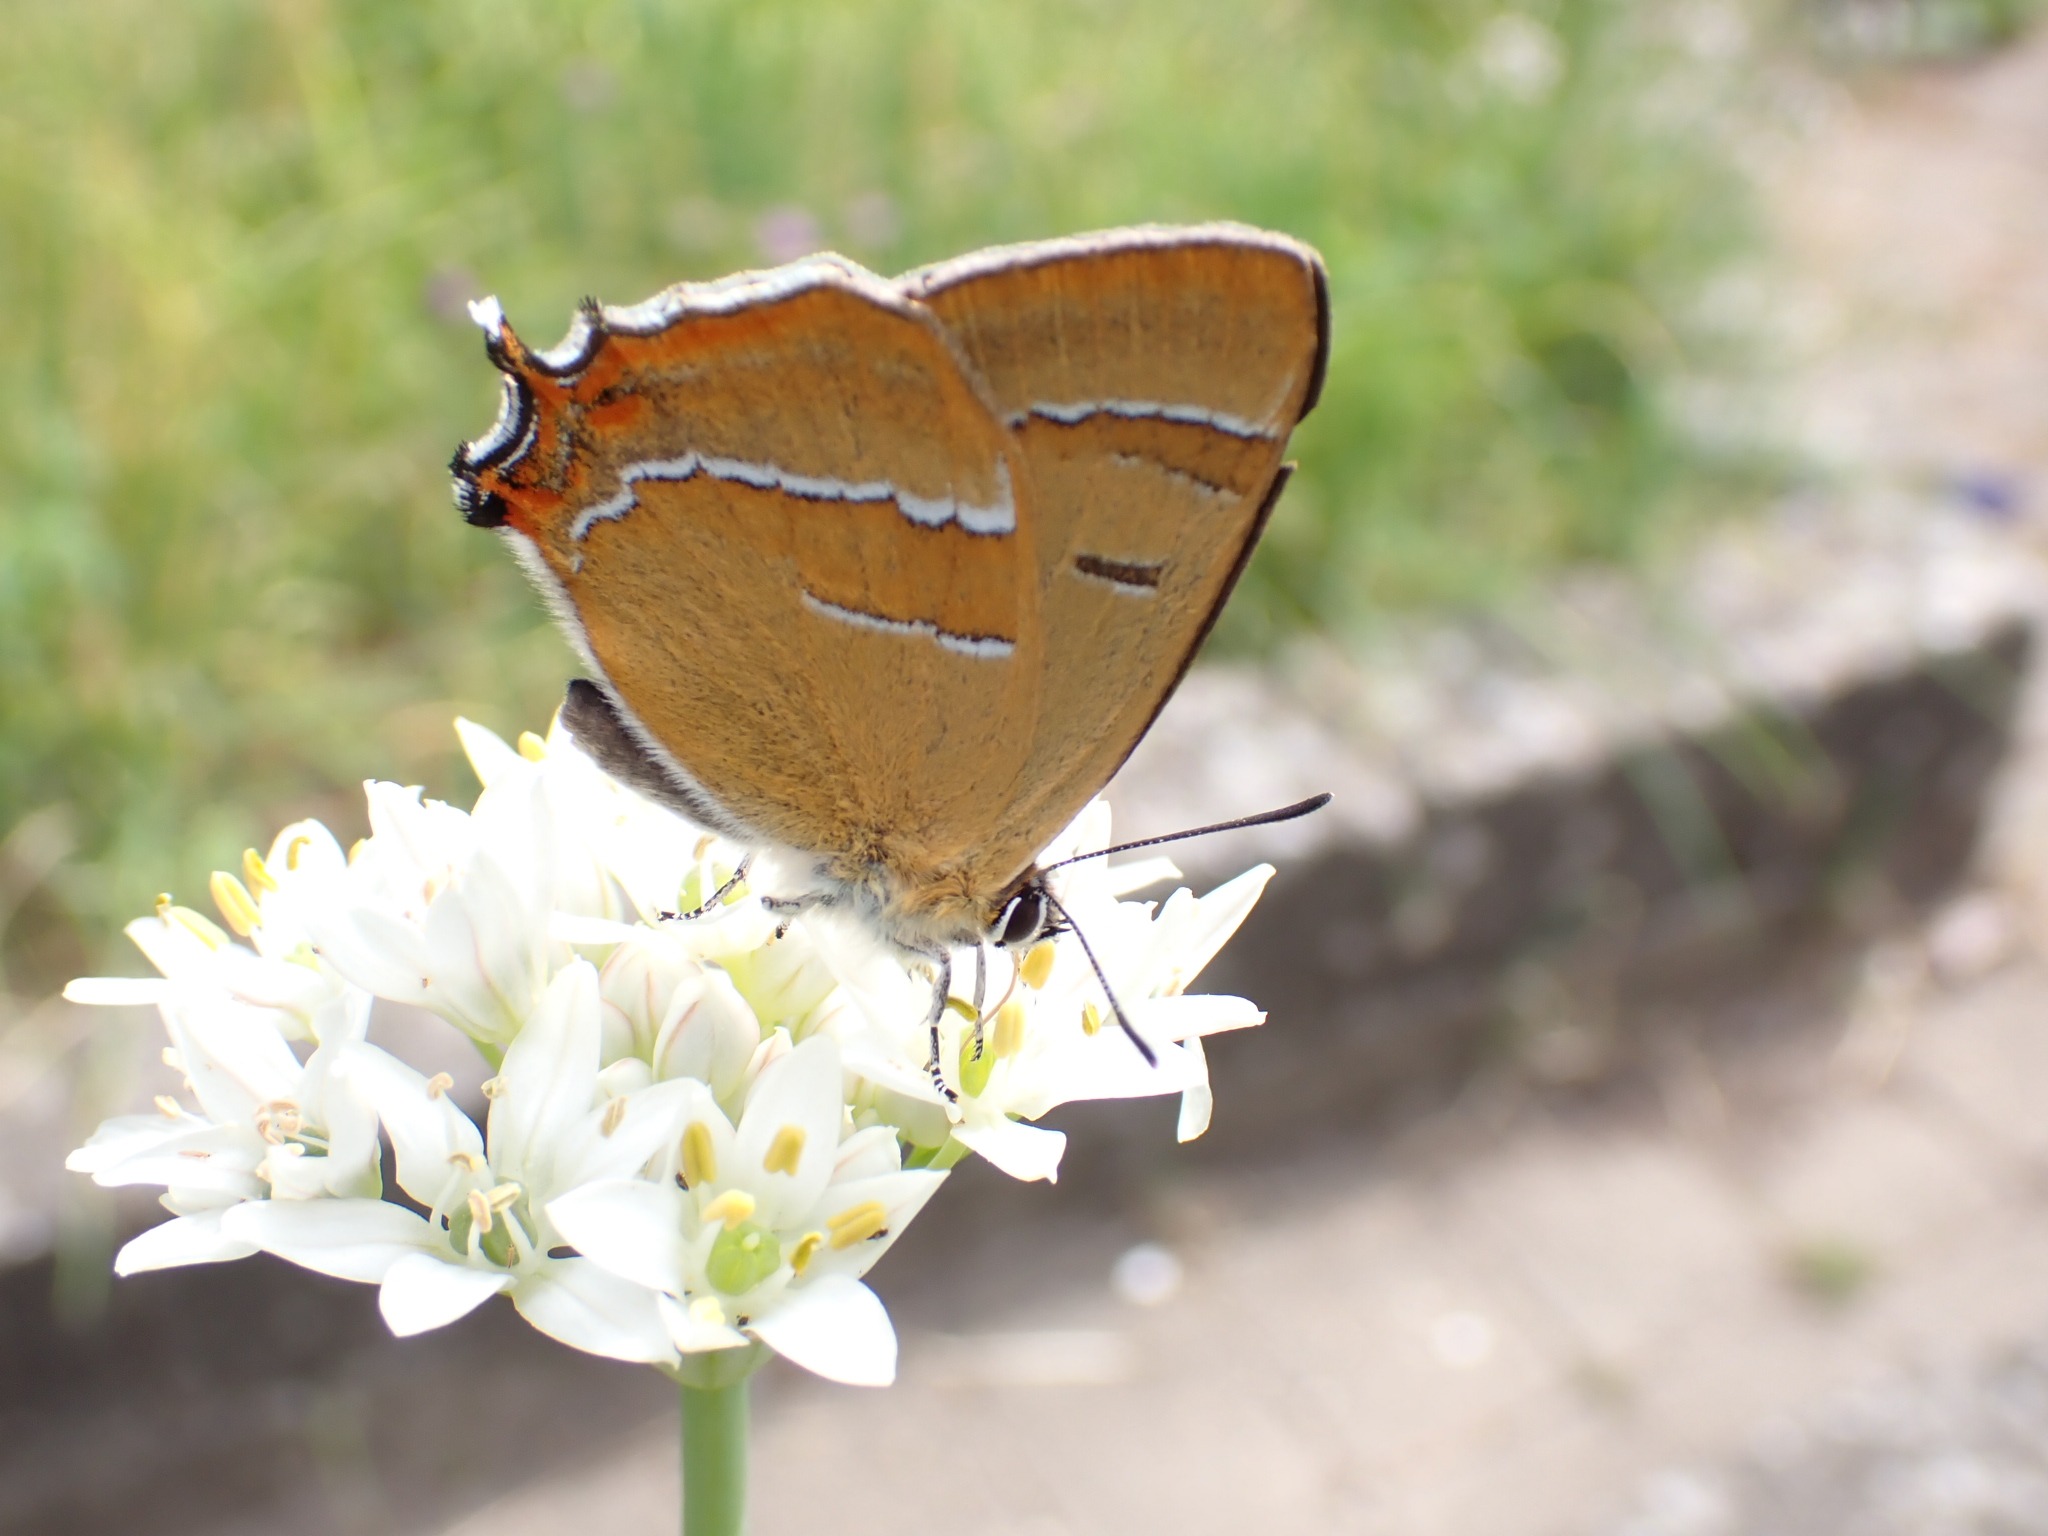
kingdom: Animalia
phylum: Arthropoda
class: Insecta
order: Lepidoptera
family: Lycaenidae
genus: Thecla
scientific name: Thecla betulae
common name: Guldhale
